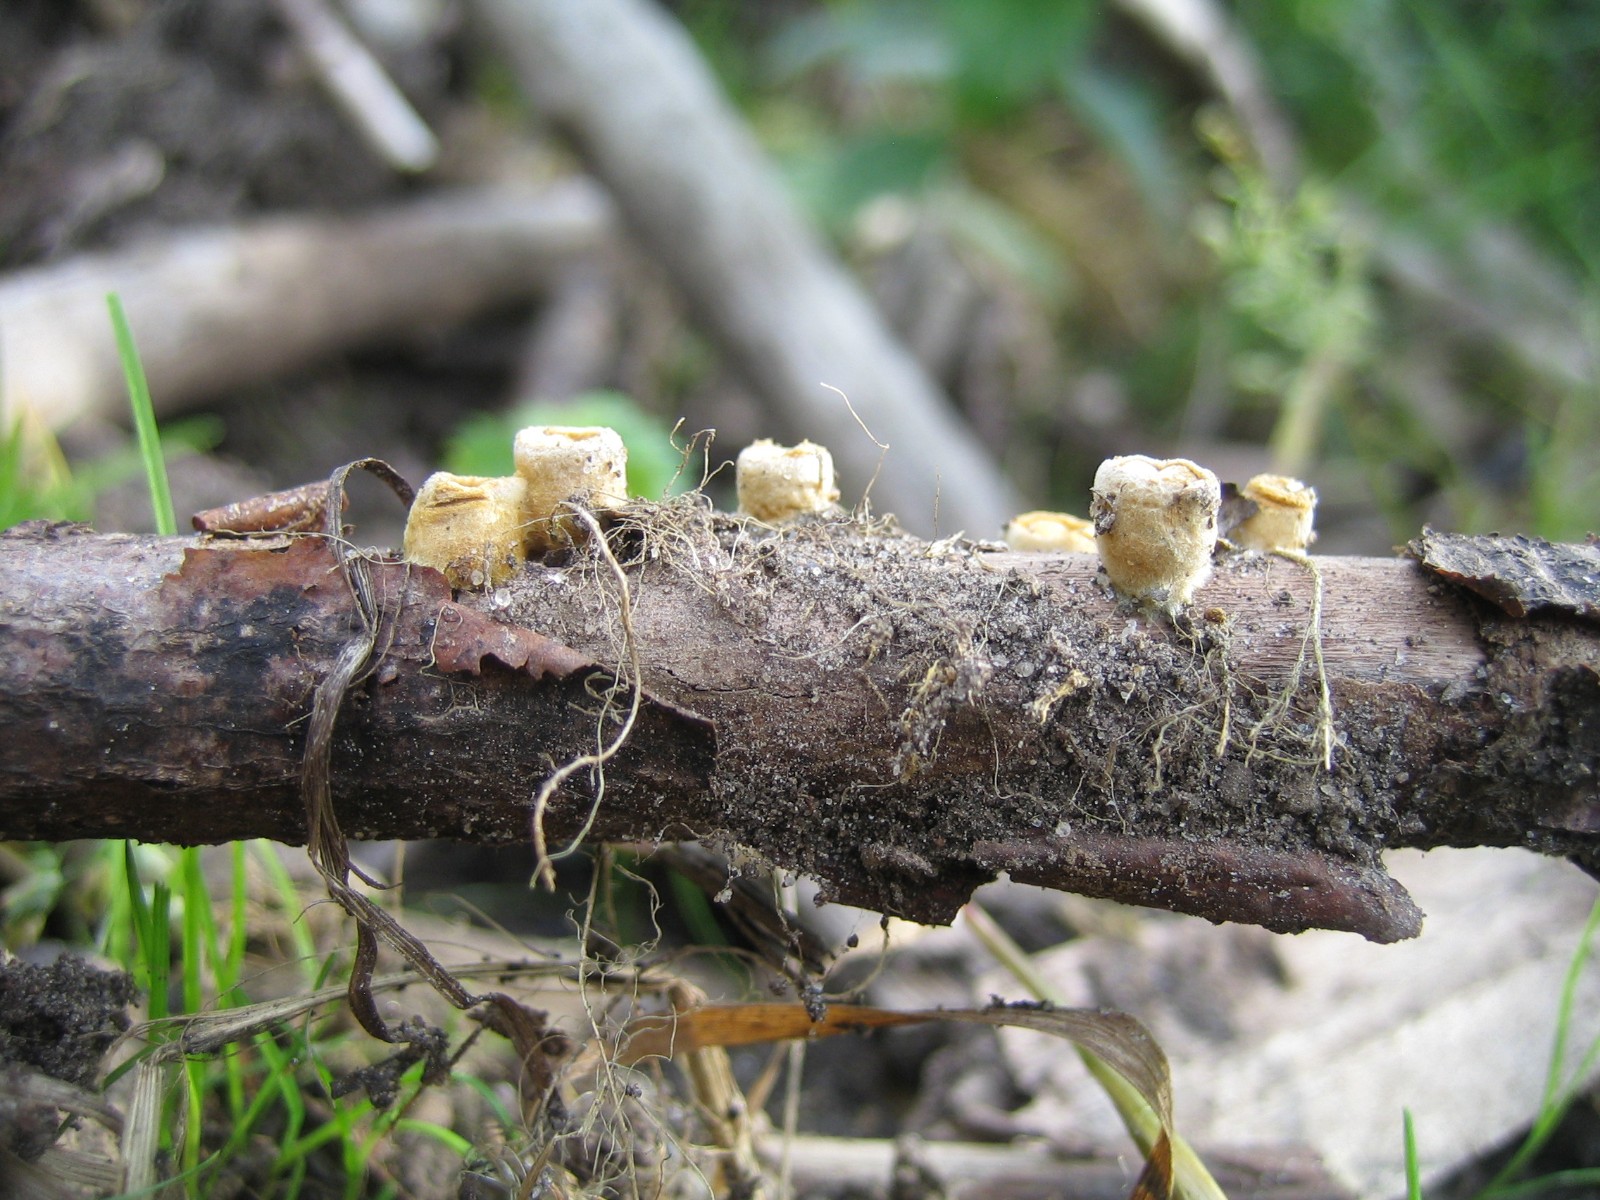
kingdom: Fungi
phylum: Basidiomycota
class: Agaricomycetes
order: Agaricales
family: Nidulariaceae
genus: Crucibulum
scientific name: Crucibulum crucibuliforme
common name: krukkesvamp
